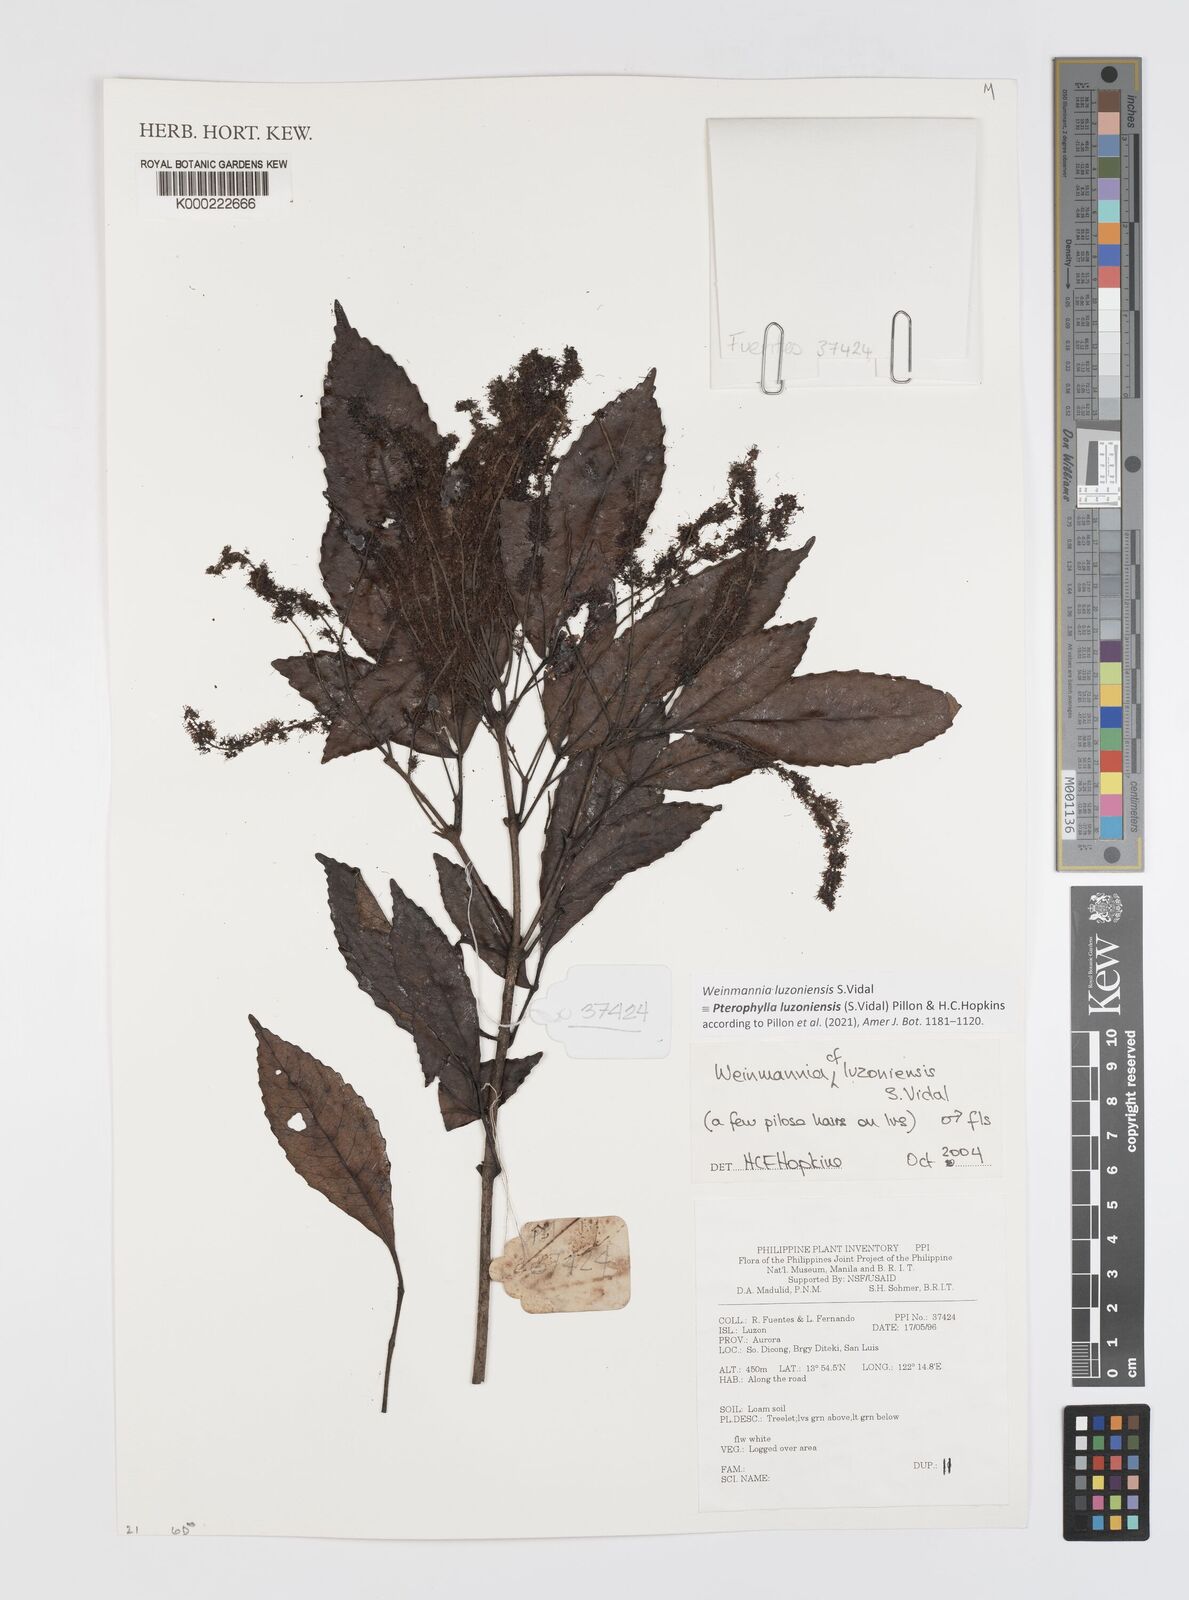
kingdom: Plantae
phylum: Tracheophyta
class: Magnoliopsida
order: Oxalidales
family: Cunoniaceae
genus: Pterophylla
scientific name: Pterophylla luzoniensis
